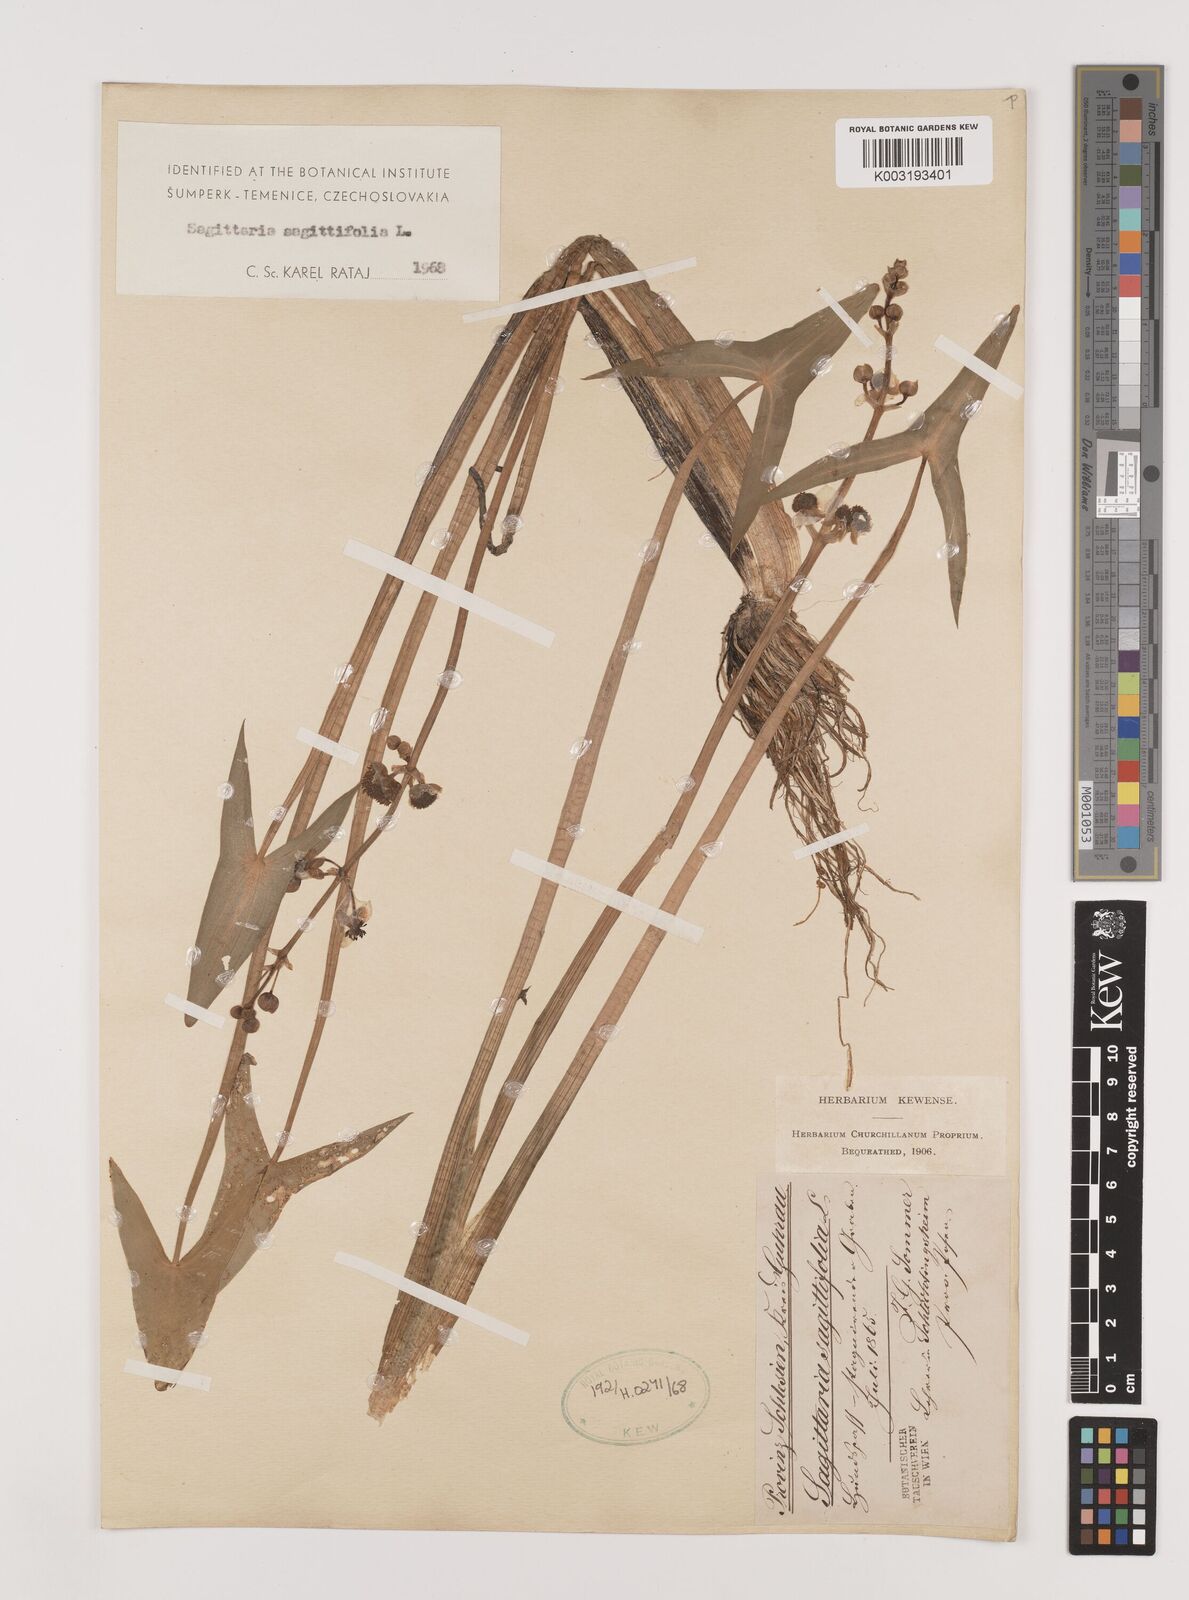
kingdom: Plantae
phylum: Tracheophyta
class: Liliopsida
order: Alismatales
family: Alismataceae
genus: Sagittaria
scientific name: Sagittaria sagittifolia
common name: Arrowhead
